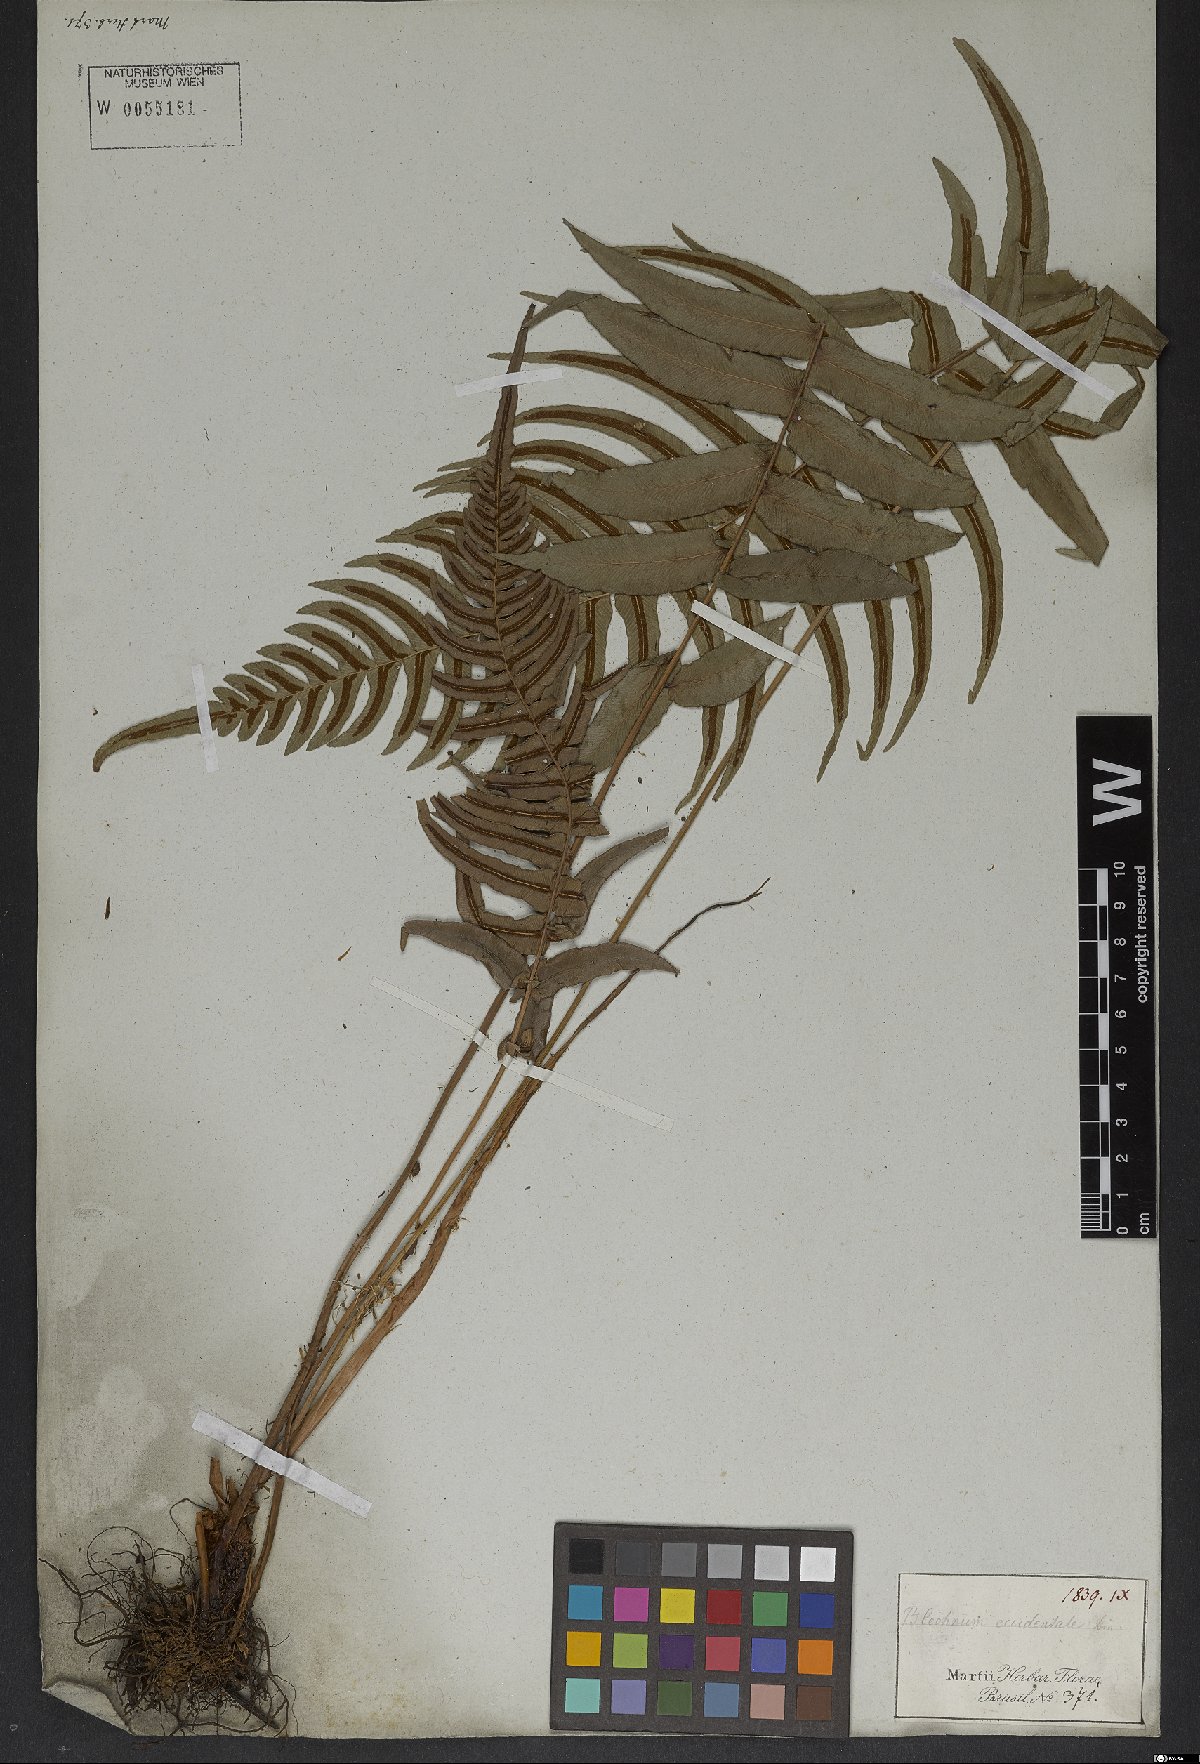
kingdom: Plantae
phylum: Tracheophyta
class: Polypodiopsida
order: Polypodiales
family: Blechnaceae
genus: Blechnum
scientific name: Blechnum occidentale
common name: Hammock fern
